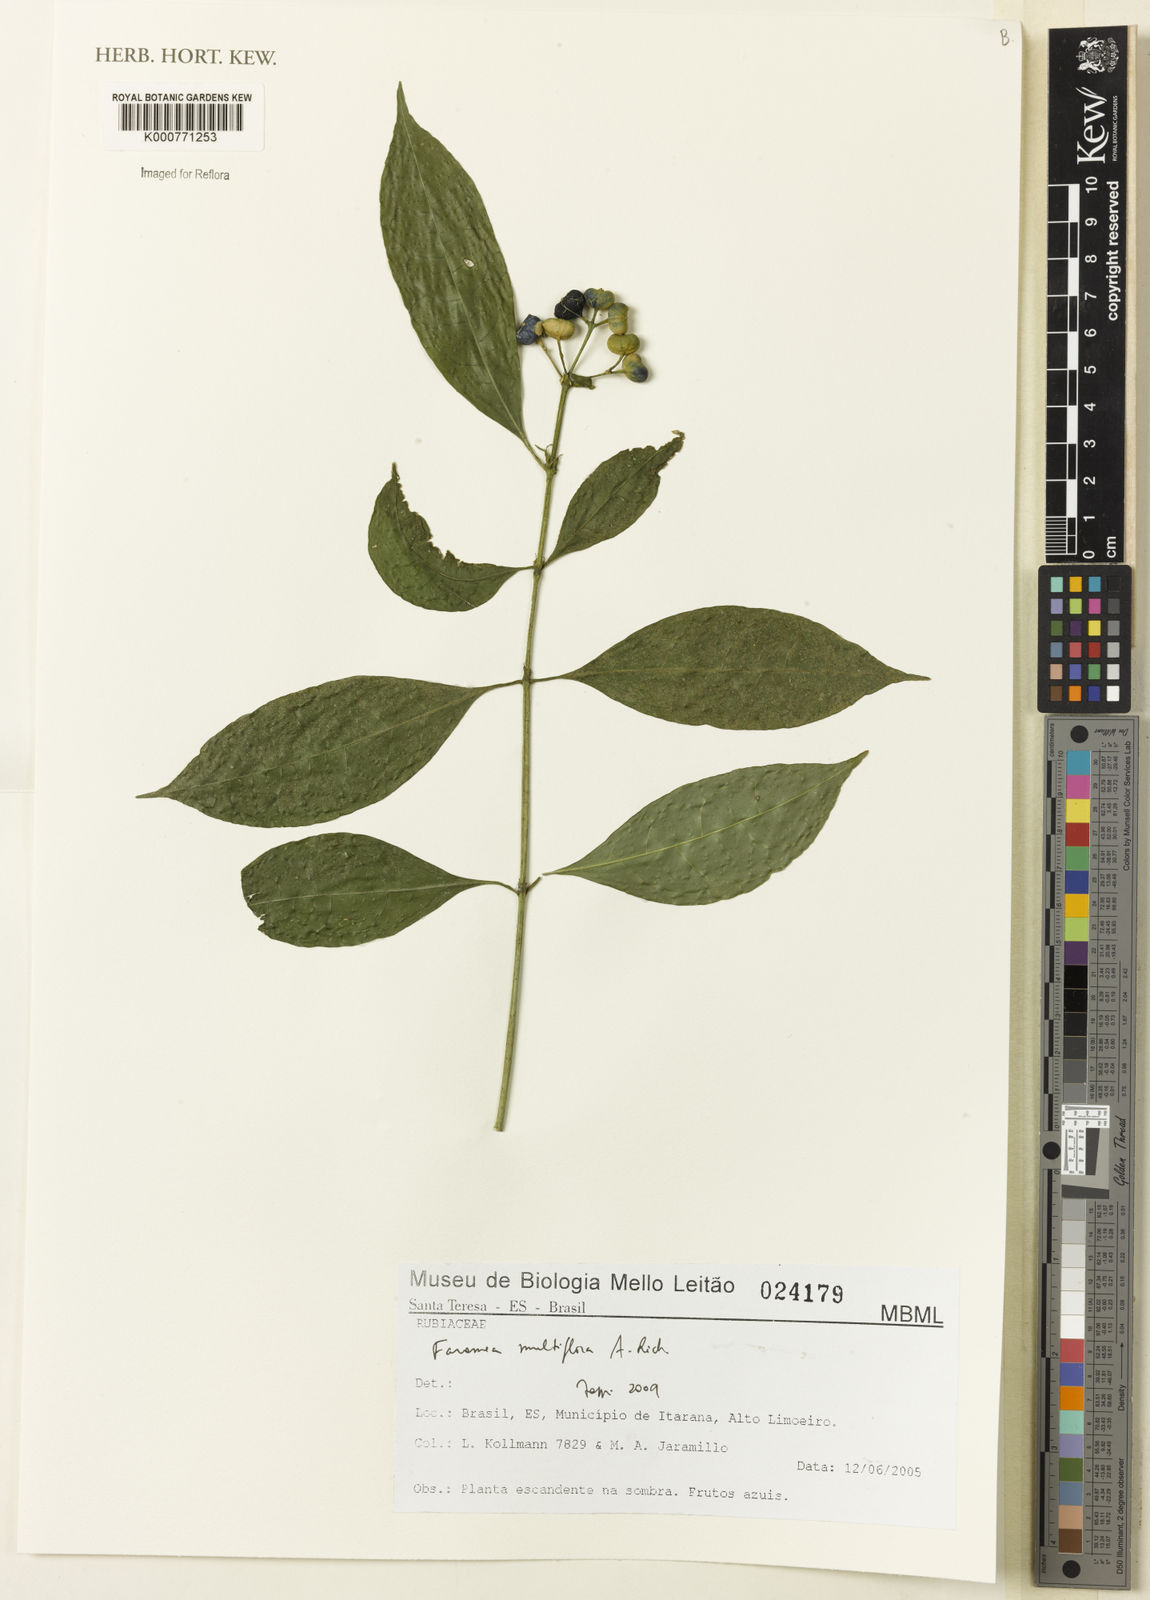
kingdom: Plantae
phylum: Tracheophyta
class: Magnoliopsida
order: Gentianales
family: Rubiaceae
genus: Faramea
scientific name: Faramea multiflora
